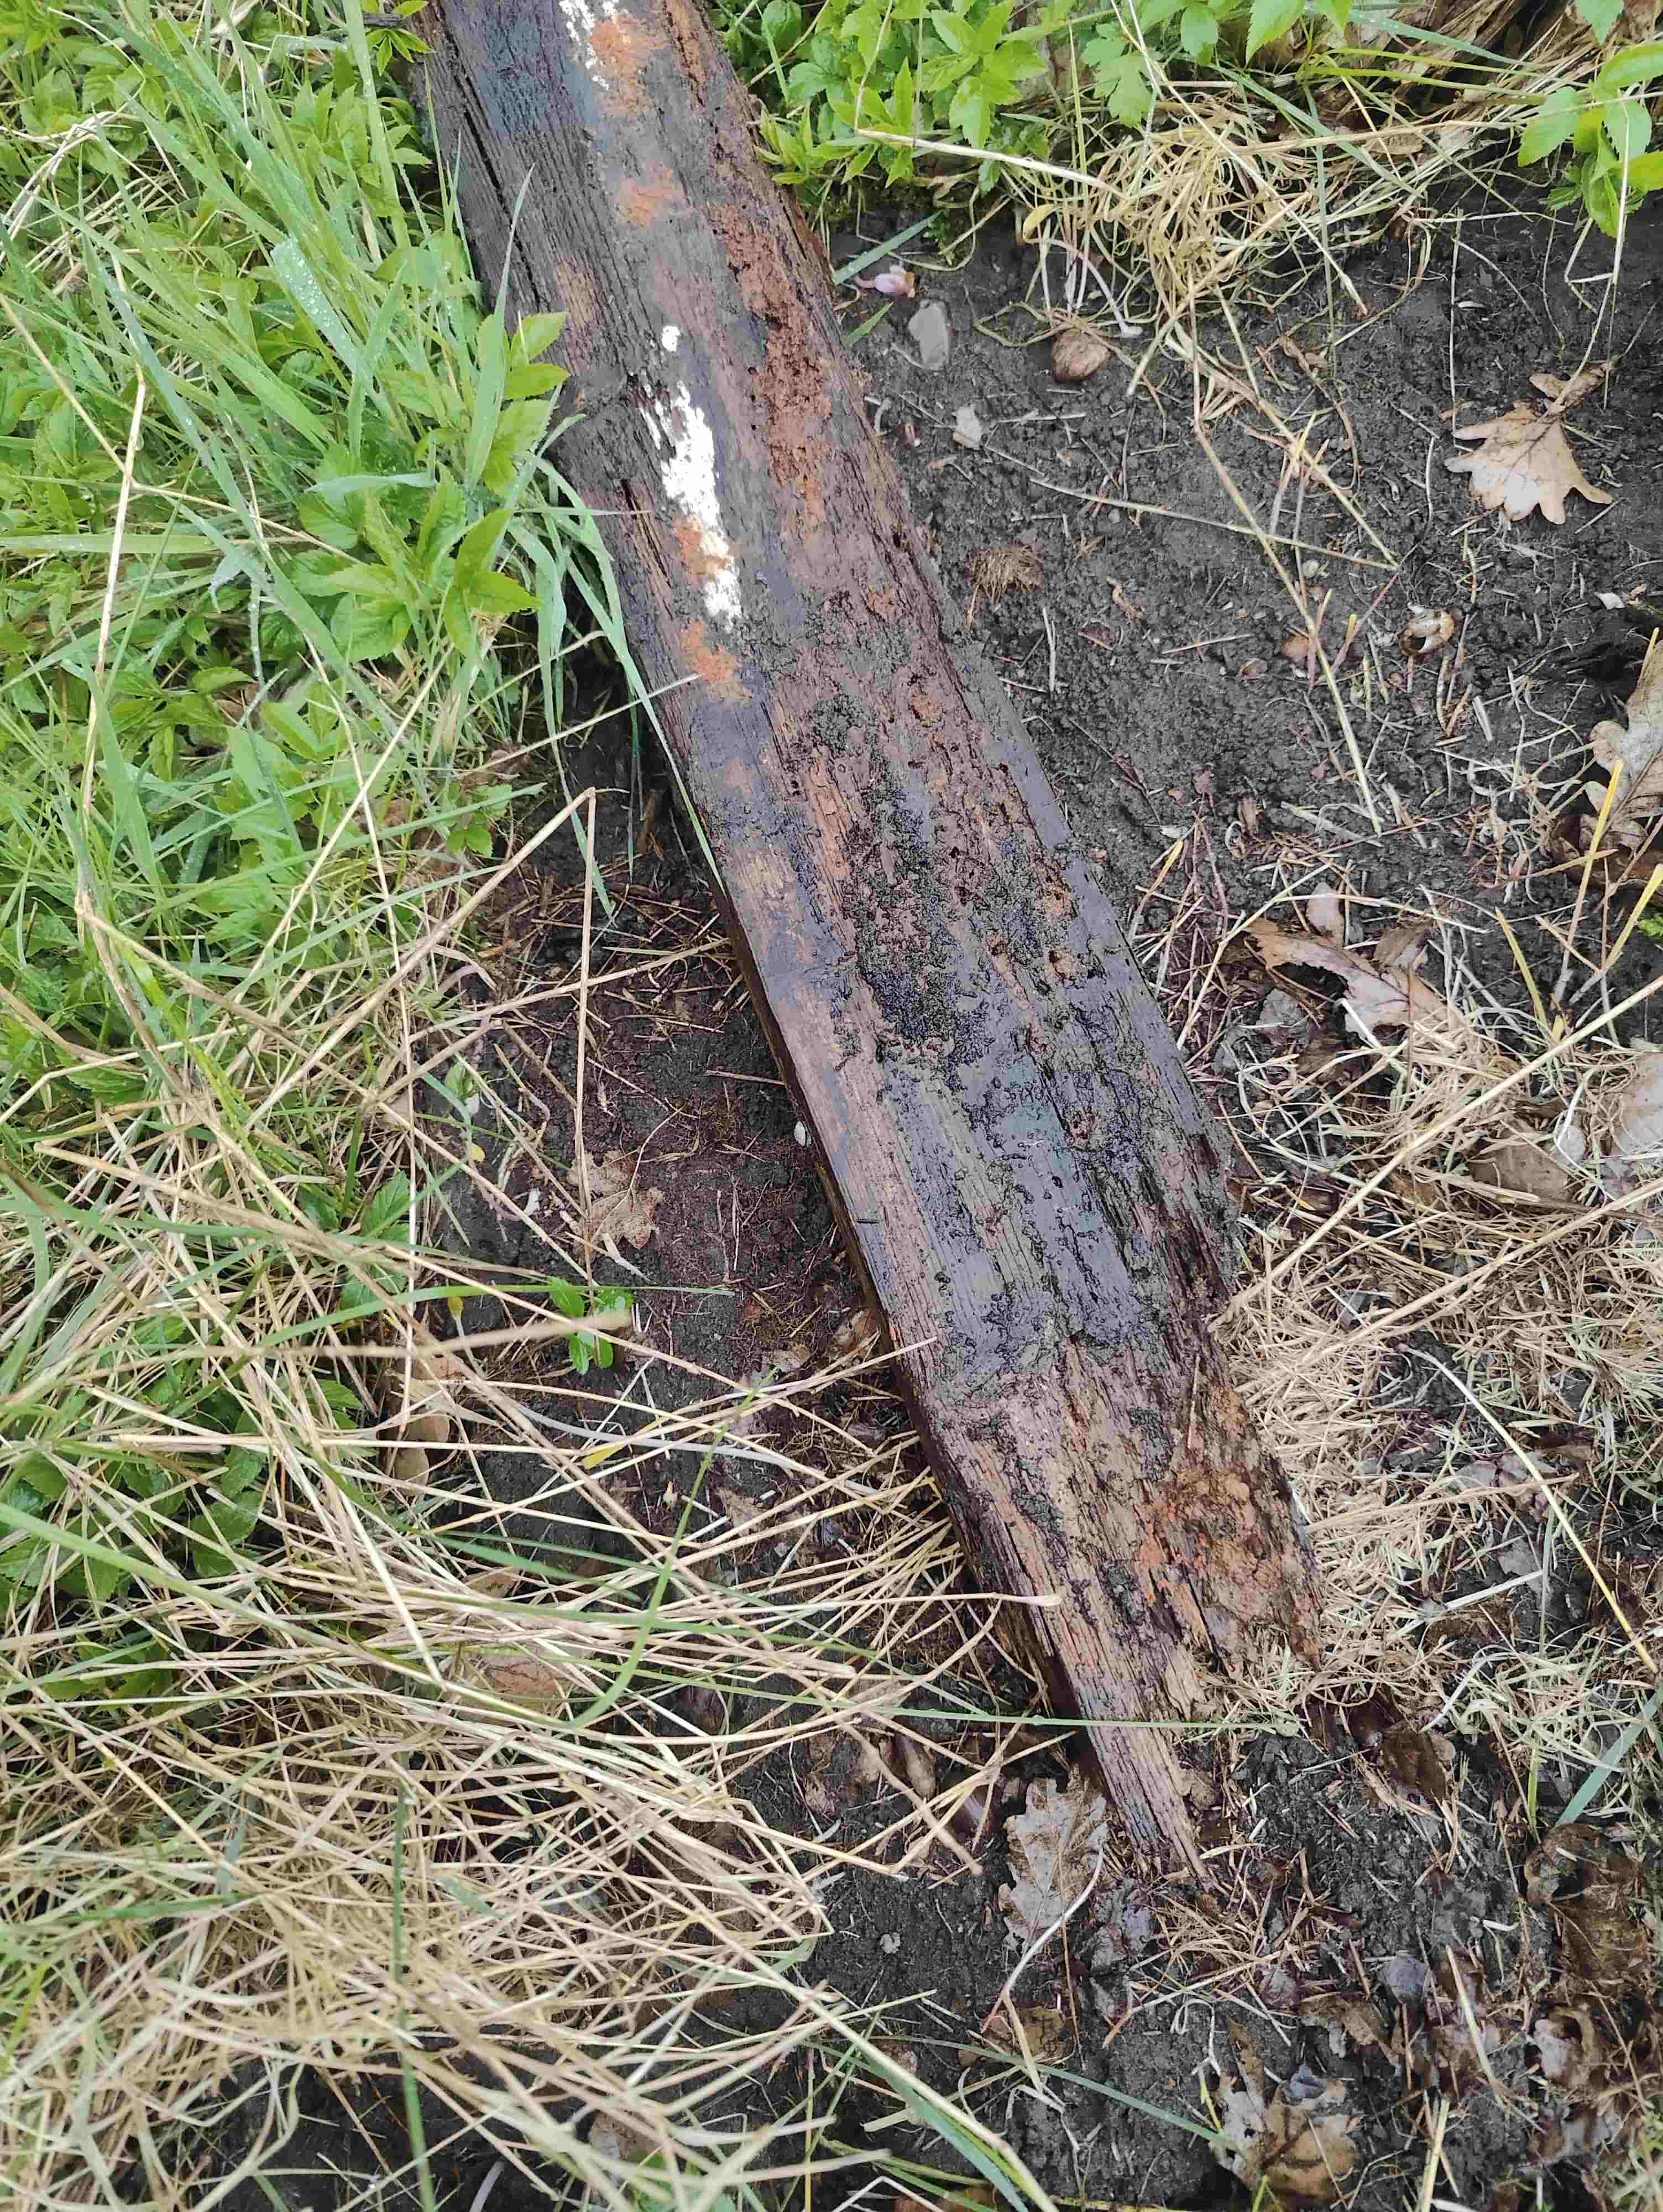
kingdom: Protozoa
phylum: Amoebozoa
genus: Arcyria
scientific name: Arcyria
